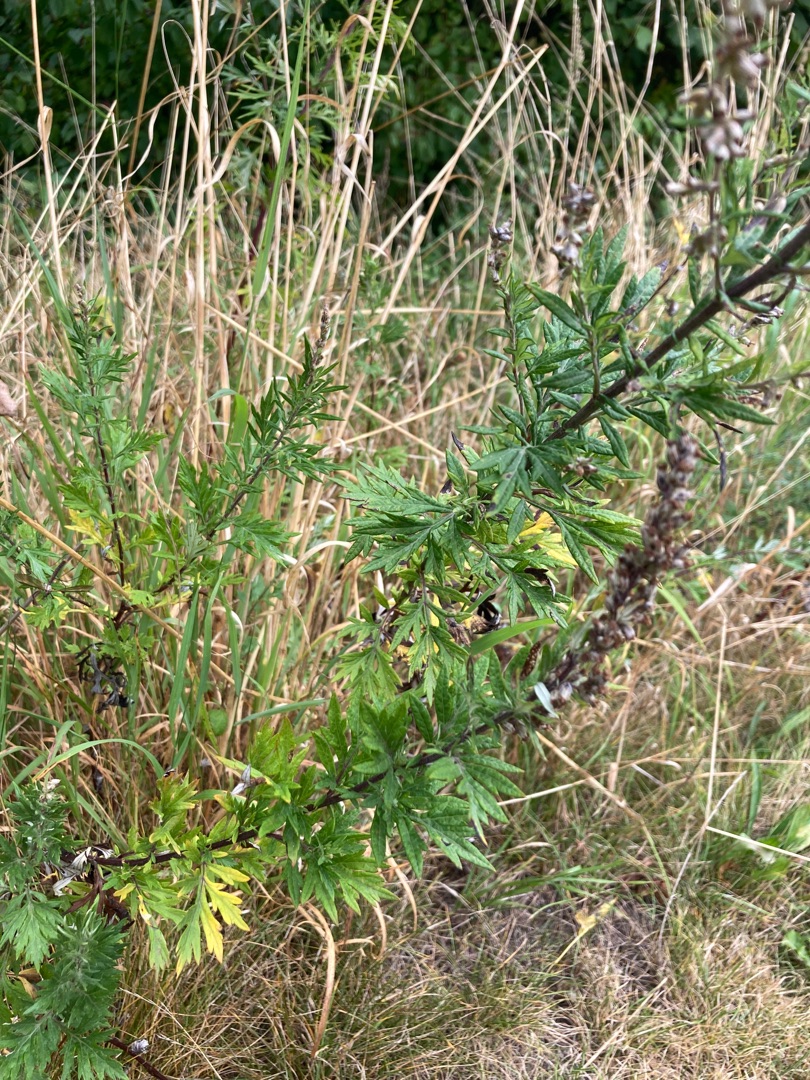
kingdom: Plantae
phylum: Tracheophyta
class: Magnoliopsida
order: Asterales
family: Asteraceae
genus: Artemisia
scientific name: Artemisia vulgaris
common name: Grå-bynke
